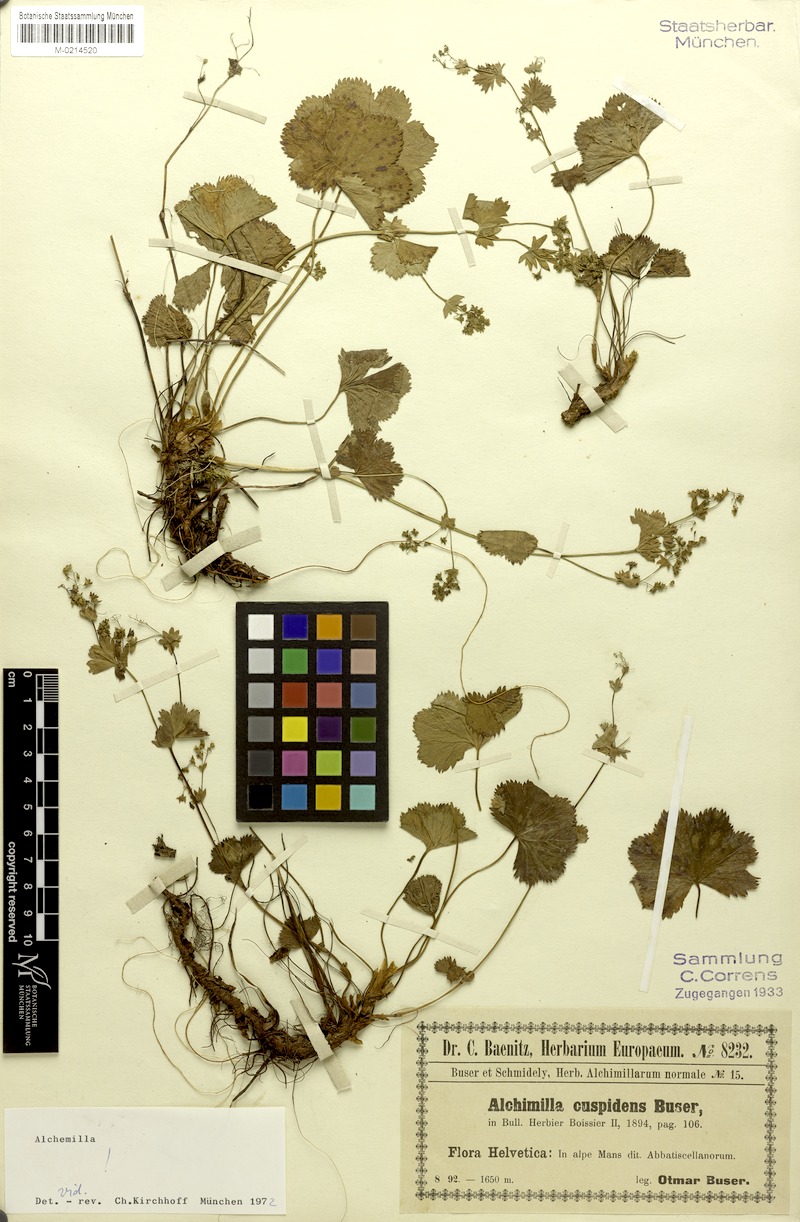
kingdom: Plantae
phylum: Tracheophyta
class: Magnoliopsida
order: Rosales
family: Rosaceae
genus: Alchemilla
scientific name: Alchemilla sericoneura
